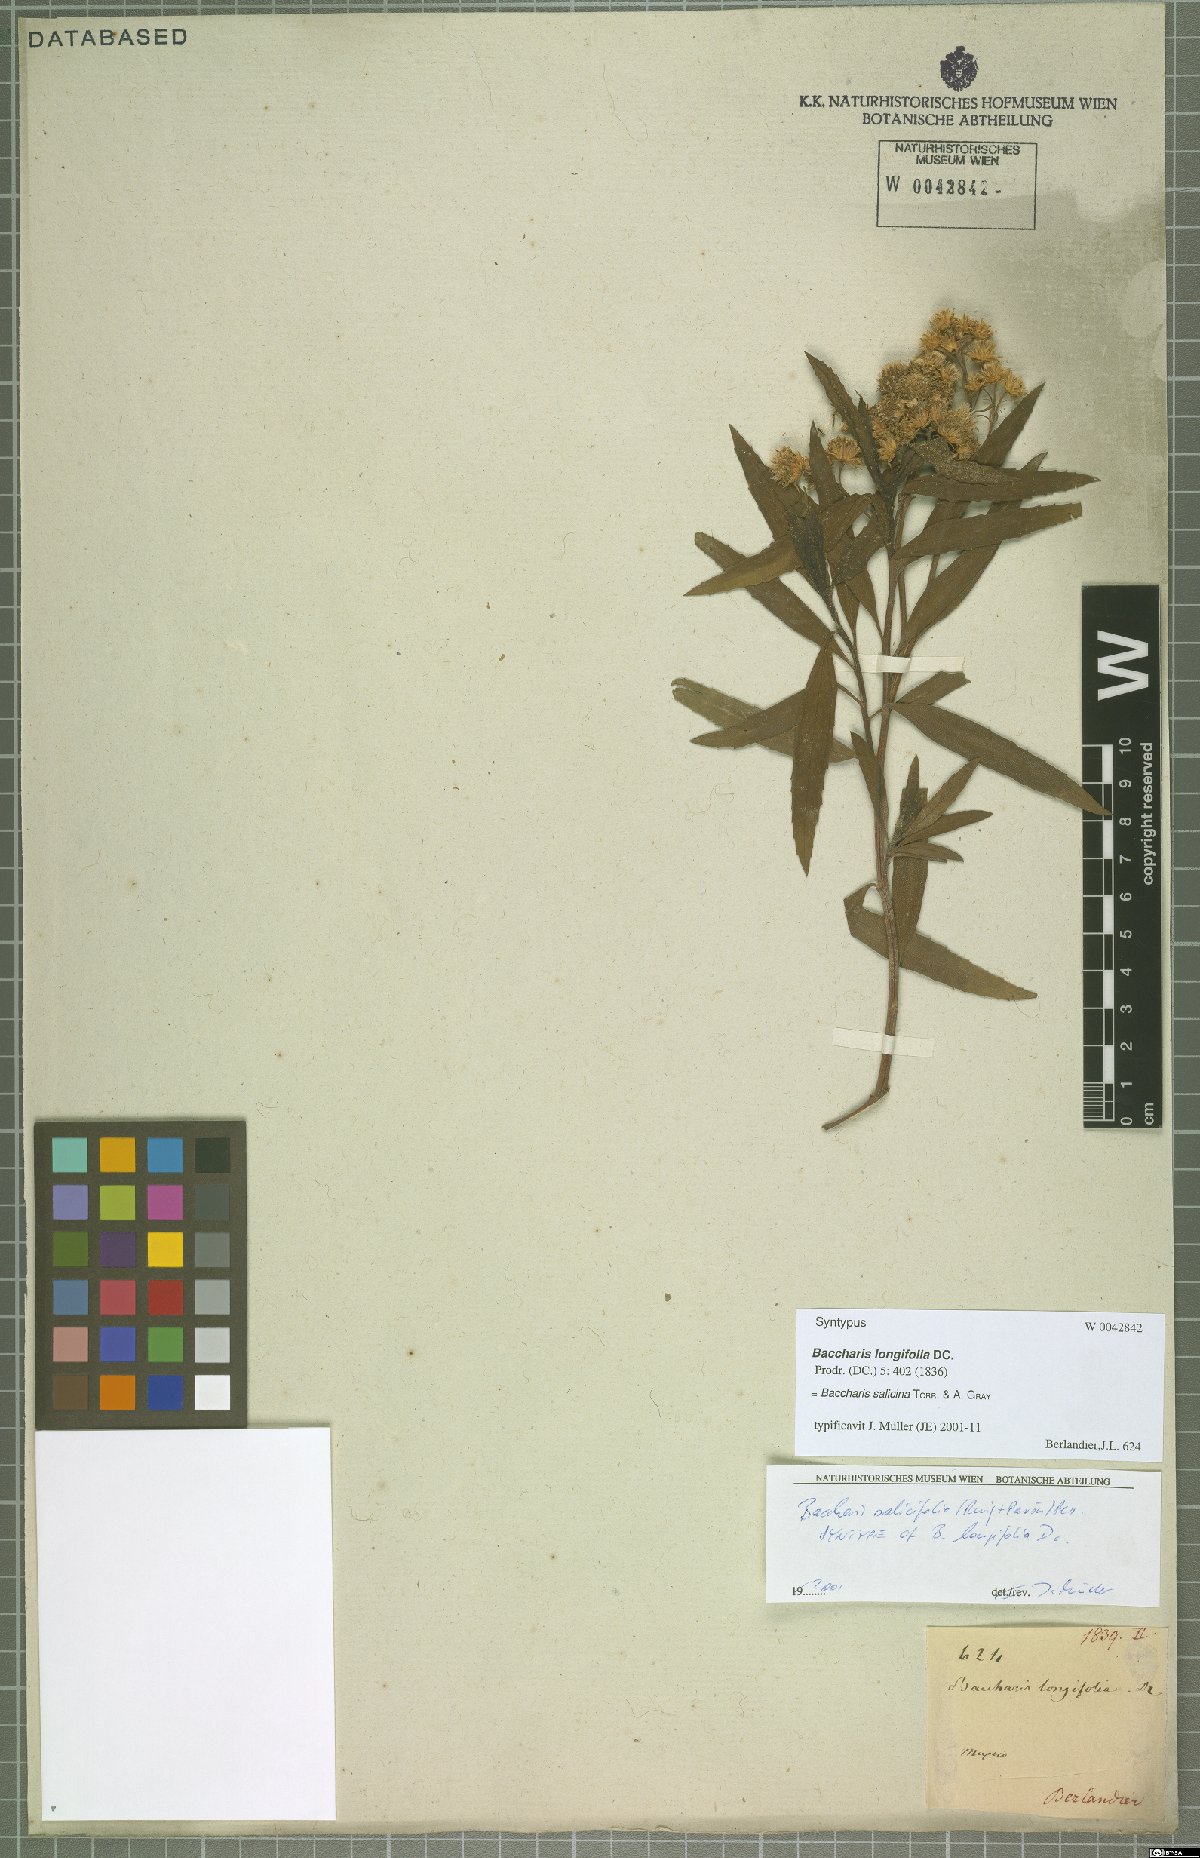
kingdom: Plantae
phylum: Tracheophyta
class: Magnoliopsida
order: Asterales
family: Asteraceae
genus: Baccharis
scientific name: Baccharis salicina
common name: Willow baccharis
